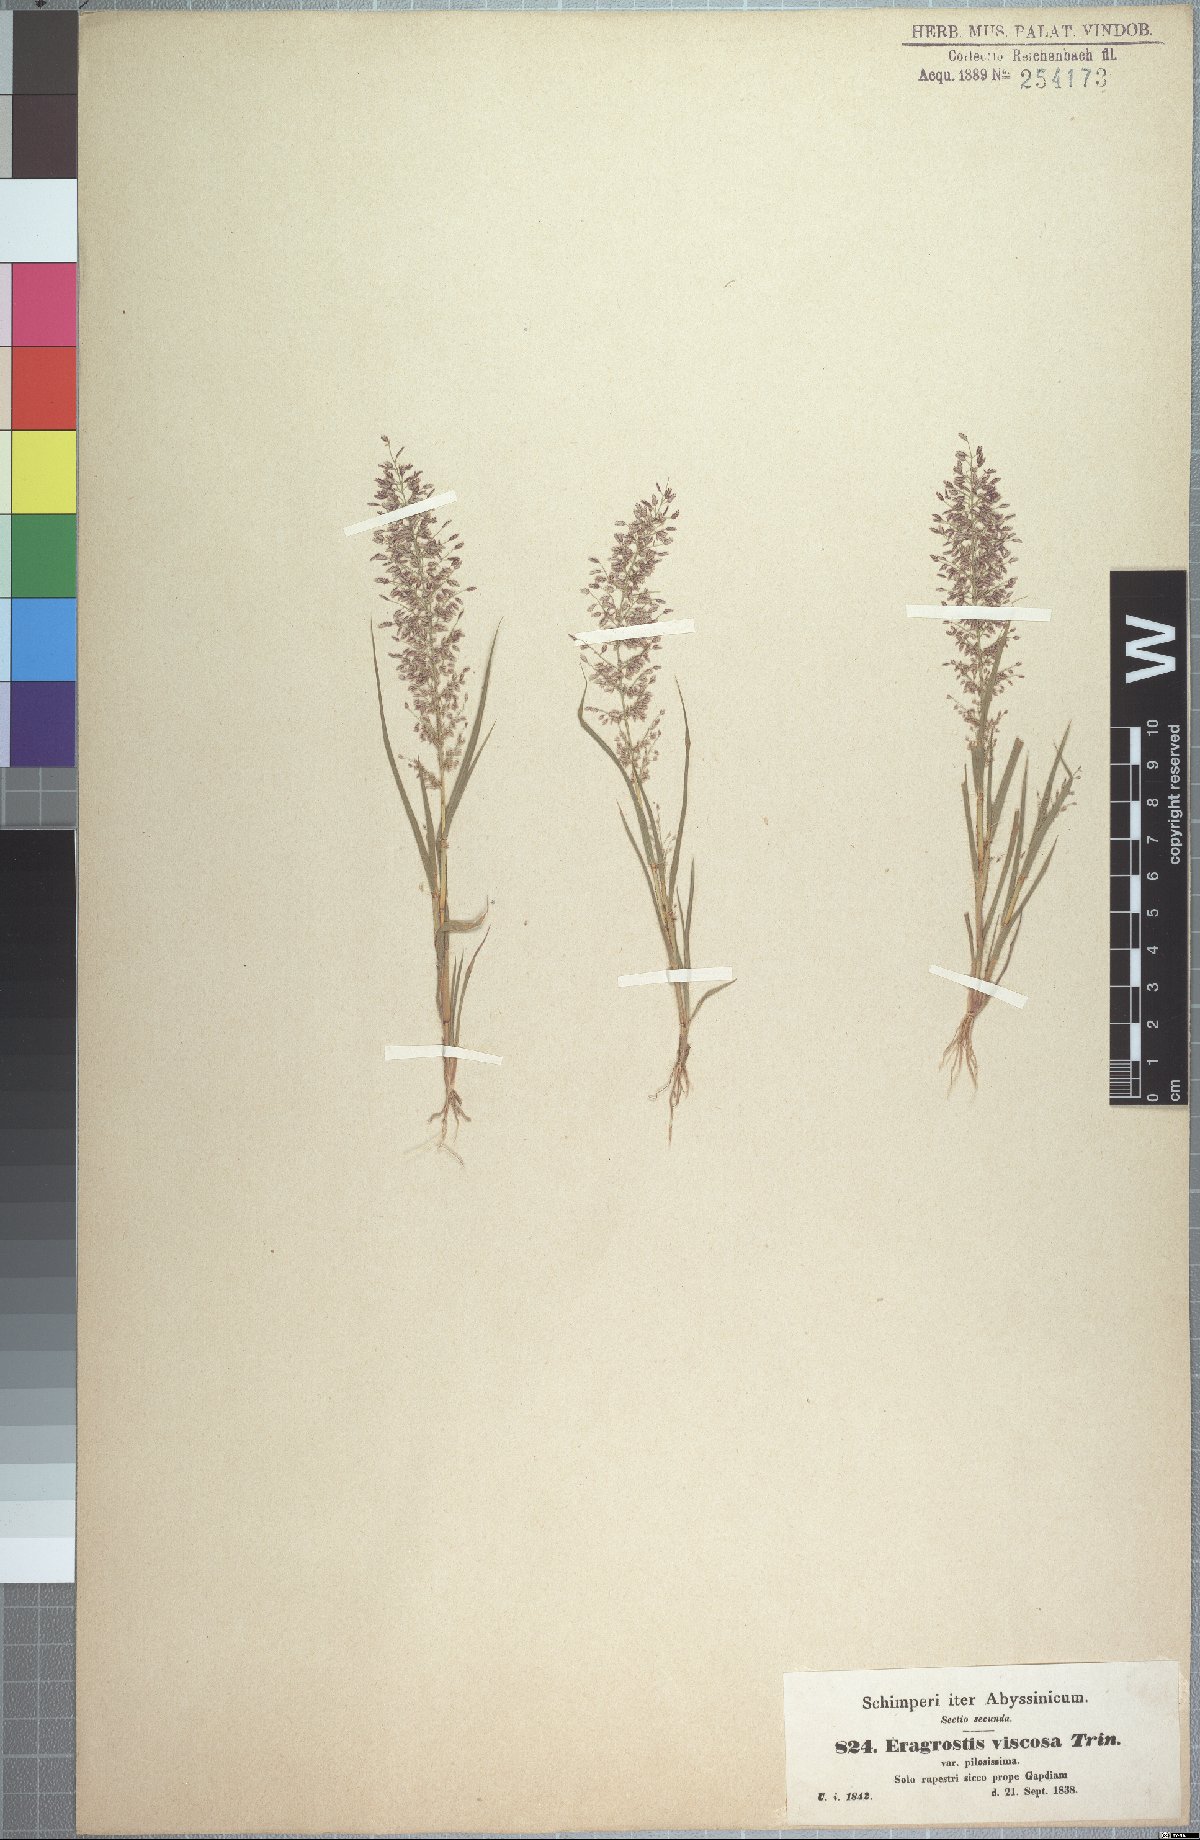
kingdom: Plantae
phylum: Tracheophyta
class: Liliopsida
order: Poales
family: Poaceae
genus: Eragrostis
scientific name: Eragrostis viscosa
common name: Sticky love grass
